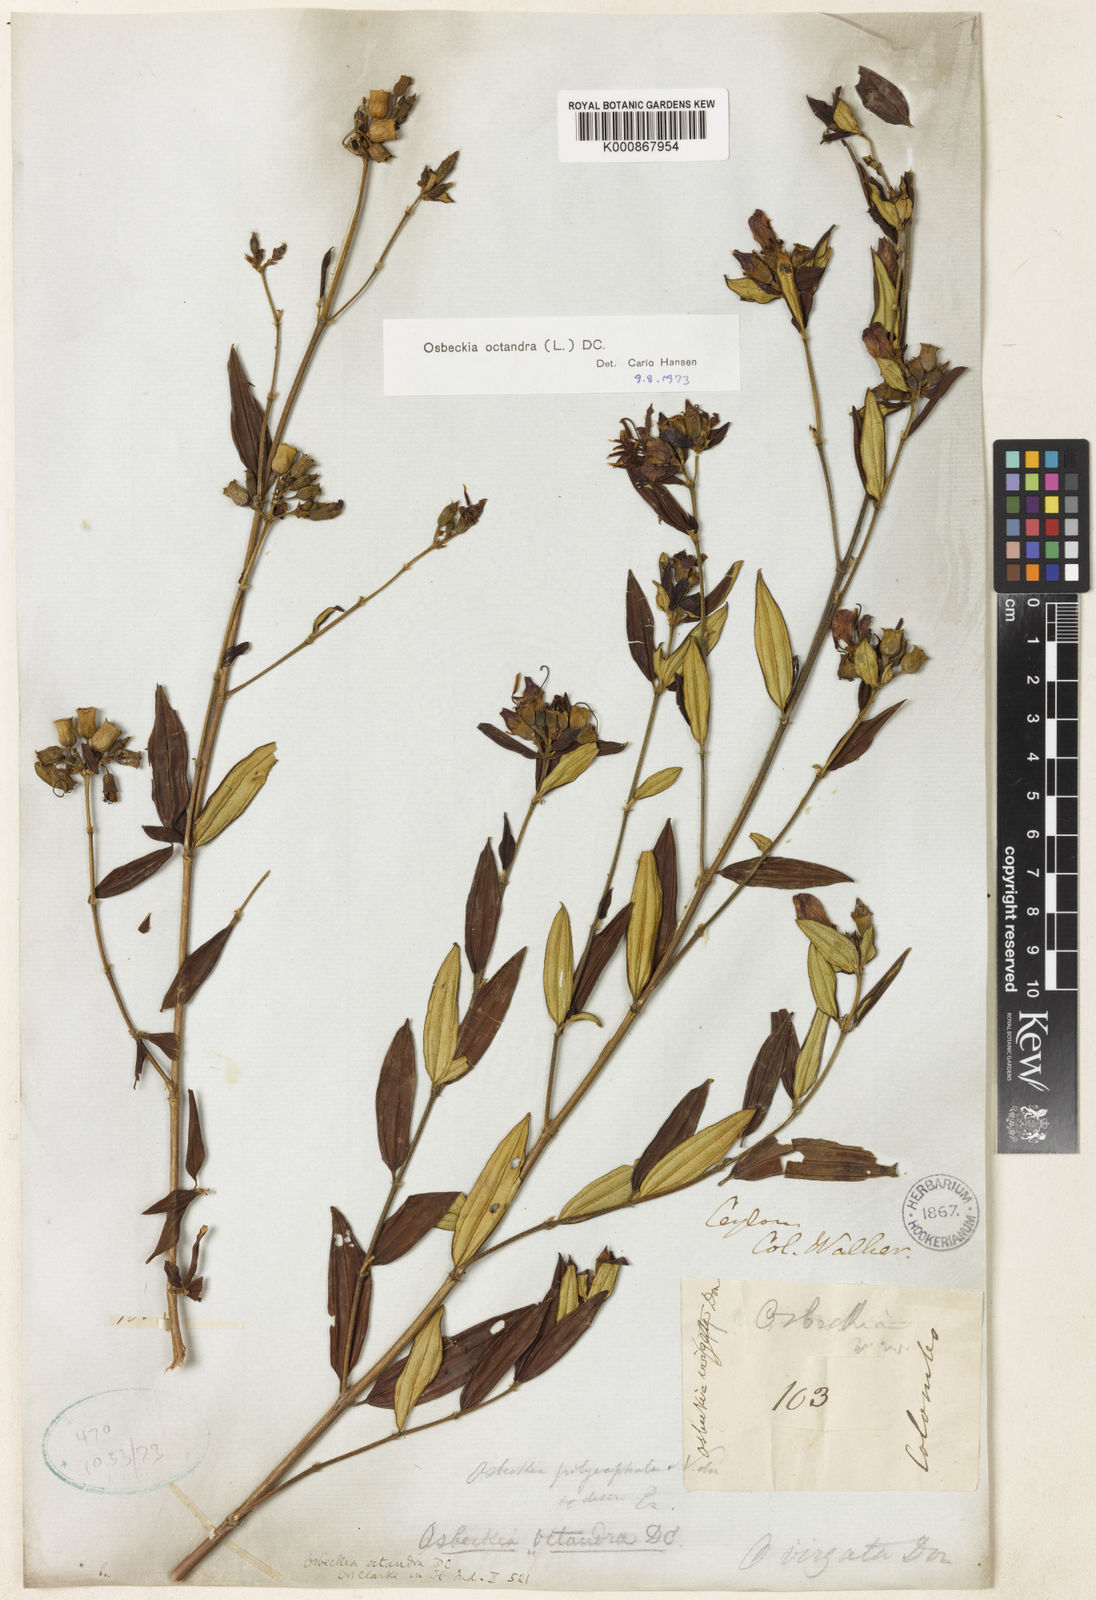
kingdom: Plantae
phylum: Tracheophyta
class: Magnoliopsida
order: Myrtales
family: Melastomataceae
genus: Osbeckia
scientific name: Osbeckia octandra
